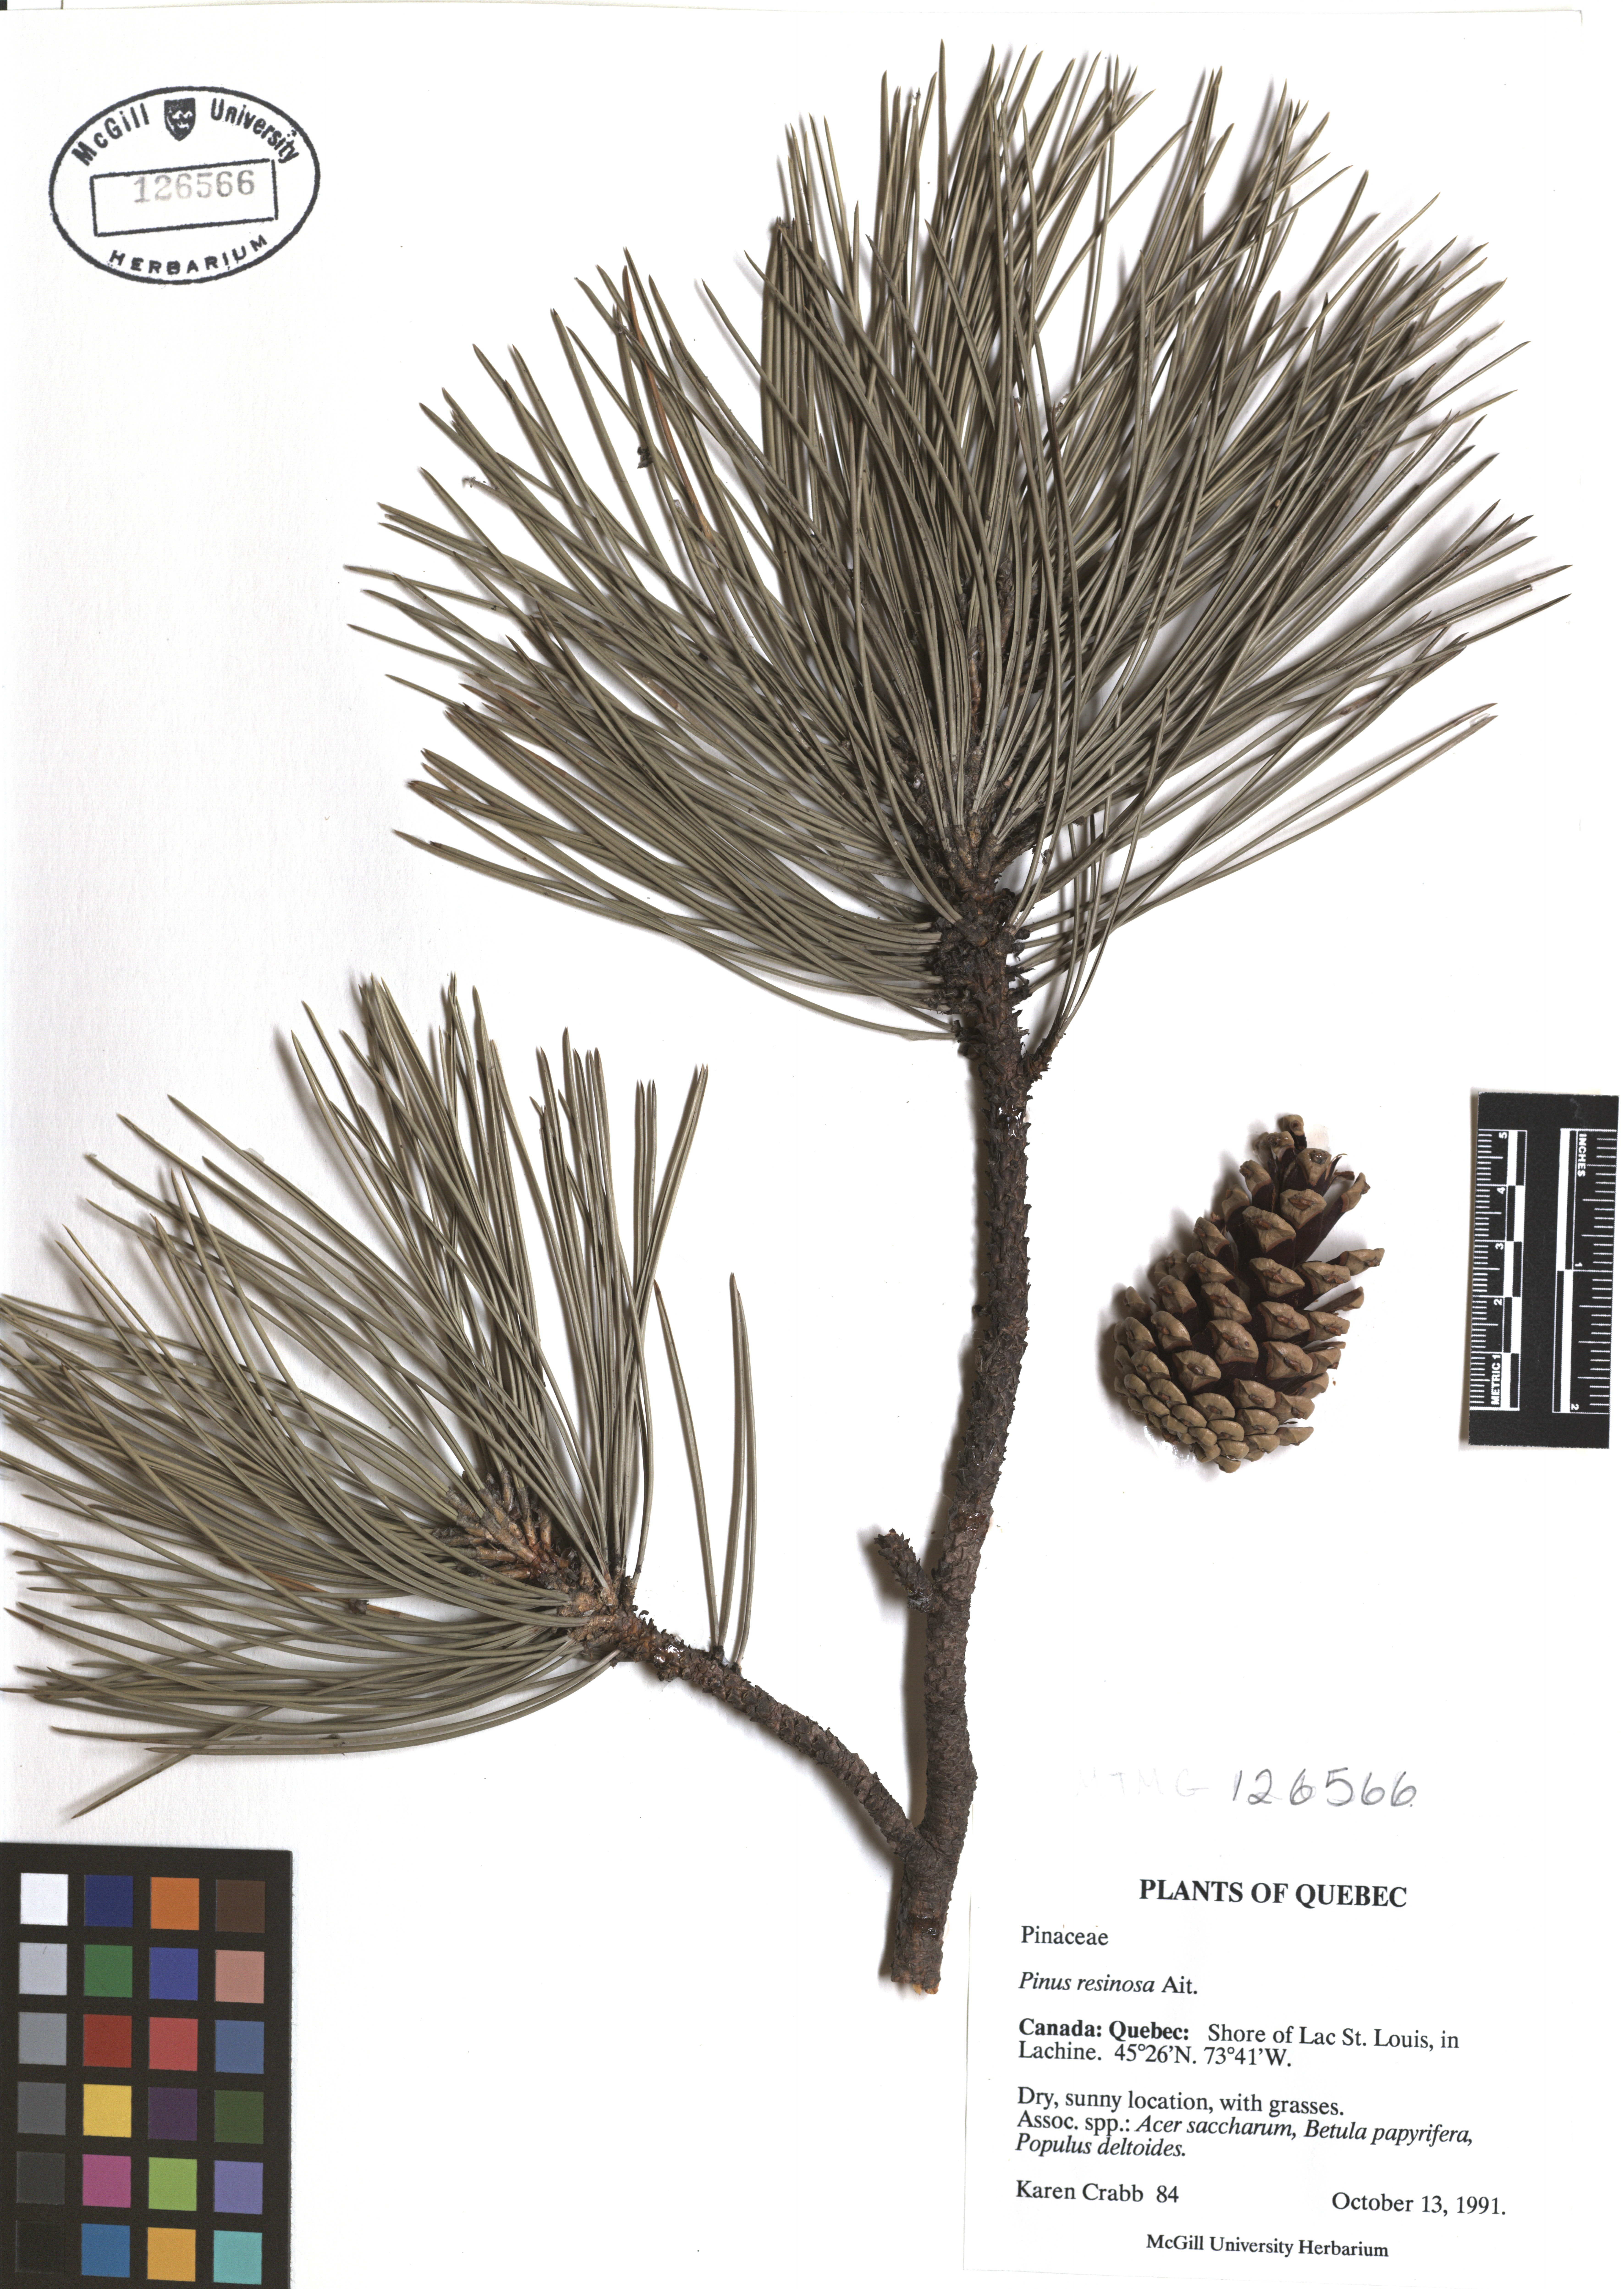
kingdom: Plantae
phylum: Tracheophyta
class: Pinopsida
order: Pinales
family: Pinaceae
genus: Pinus
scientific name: Pinus hartwegii
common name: Hartweg's pine
